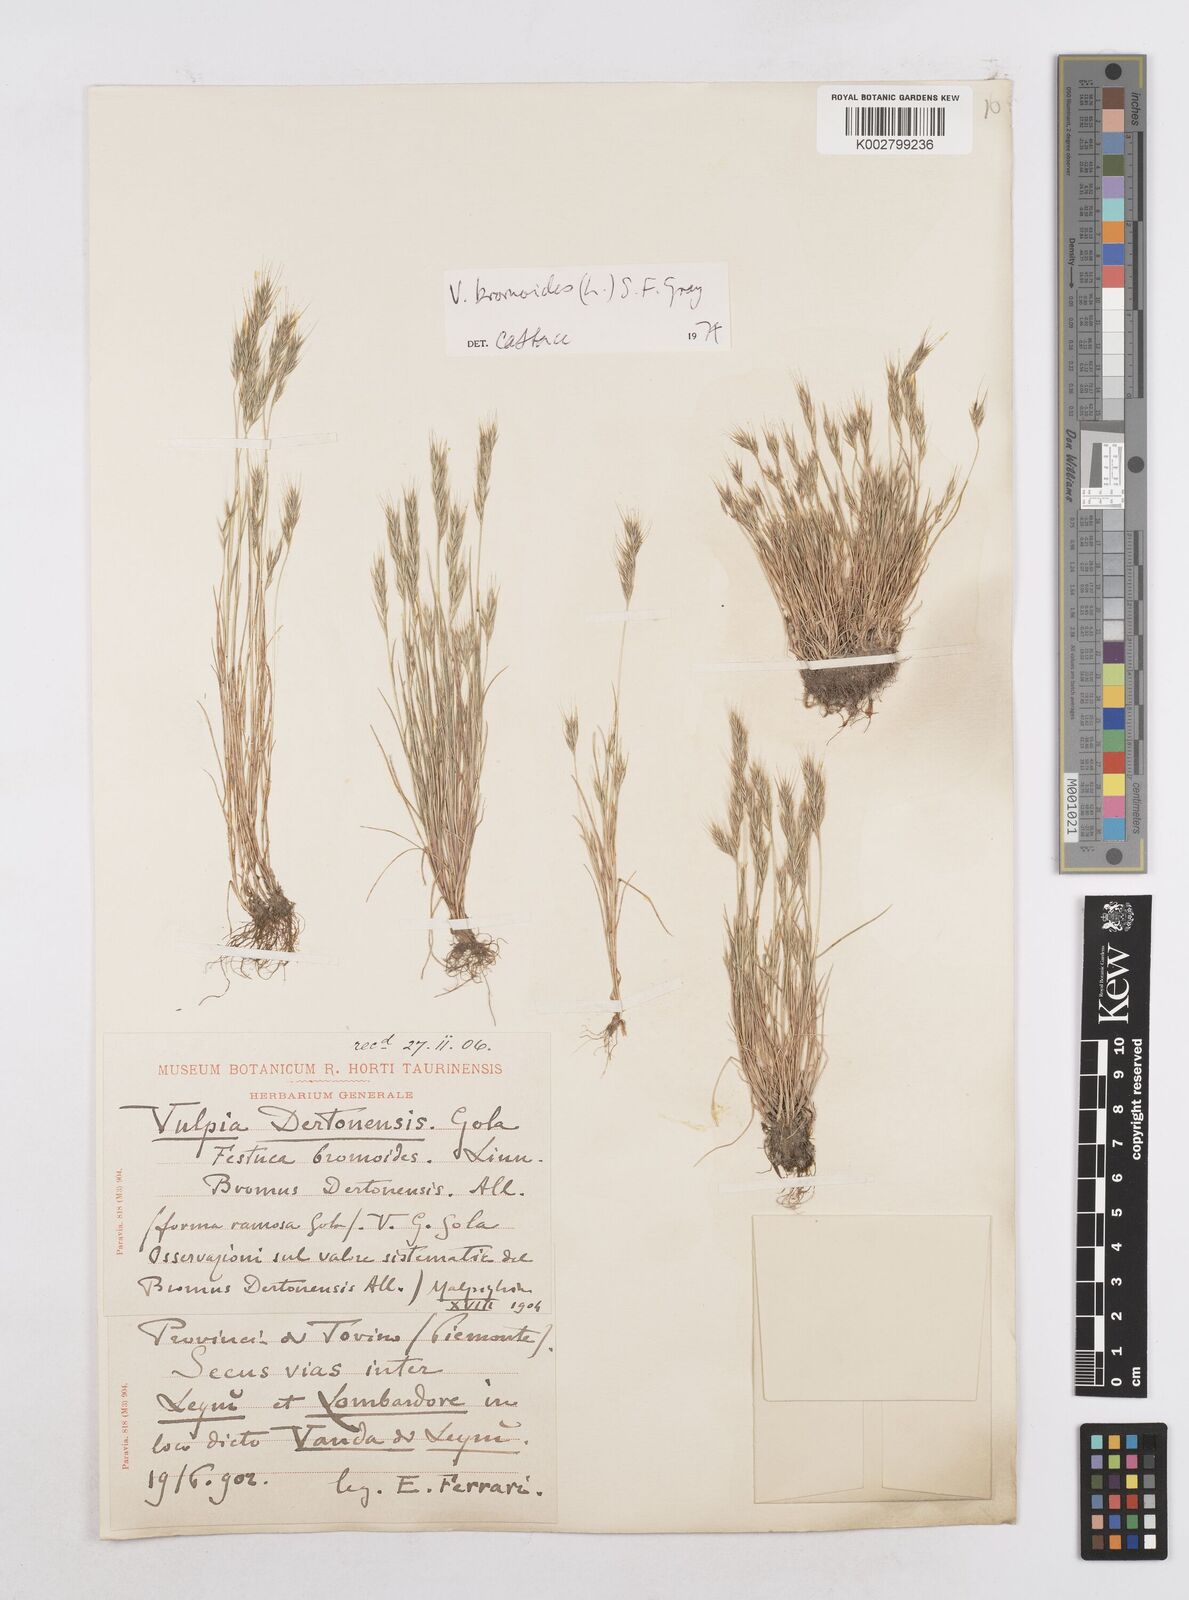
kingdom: Plantae
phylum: Tracheophyta
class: Liliopsida
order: Poales
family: Poaceae
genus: Festuca
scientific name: Festuca bromoides
